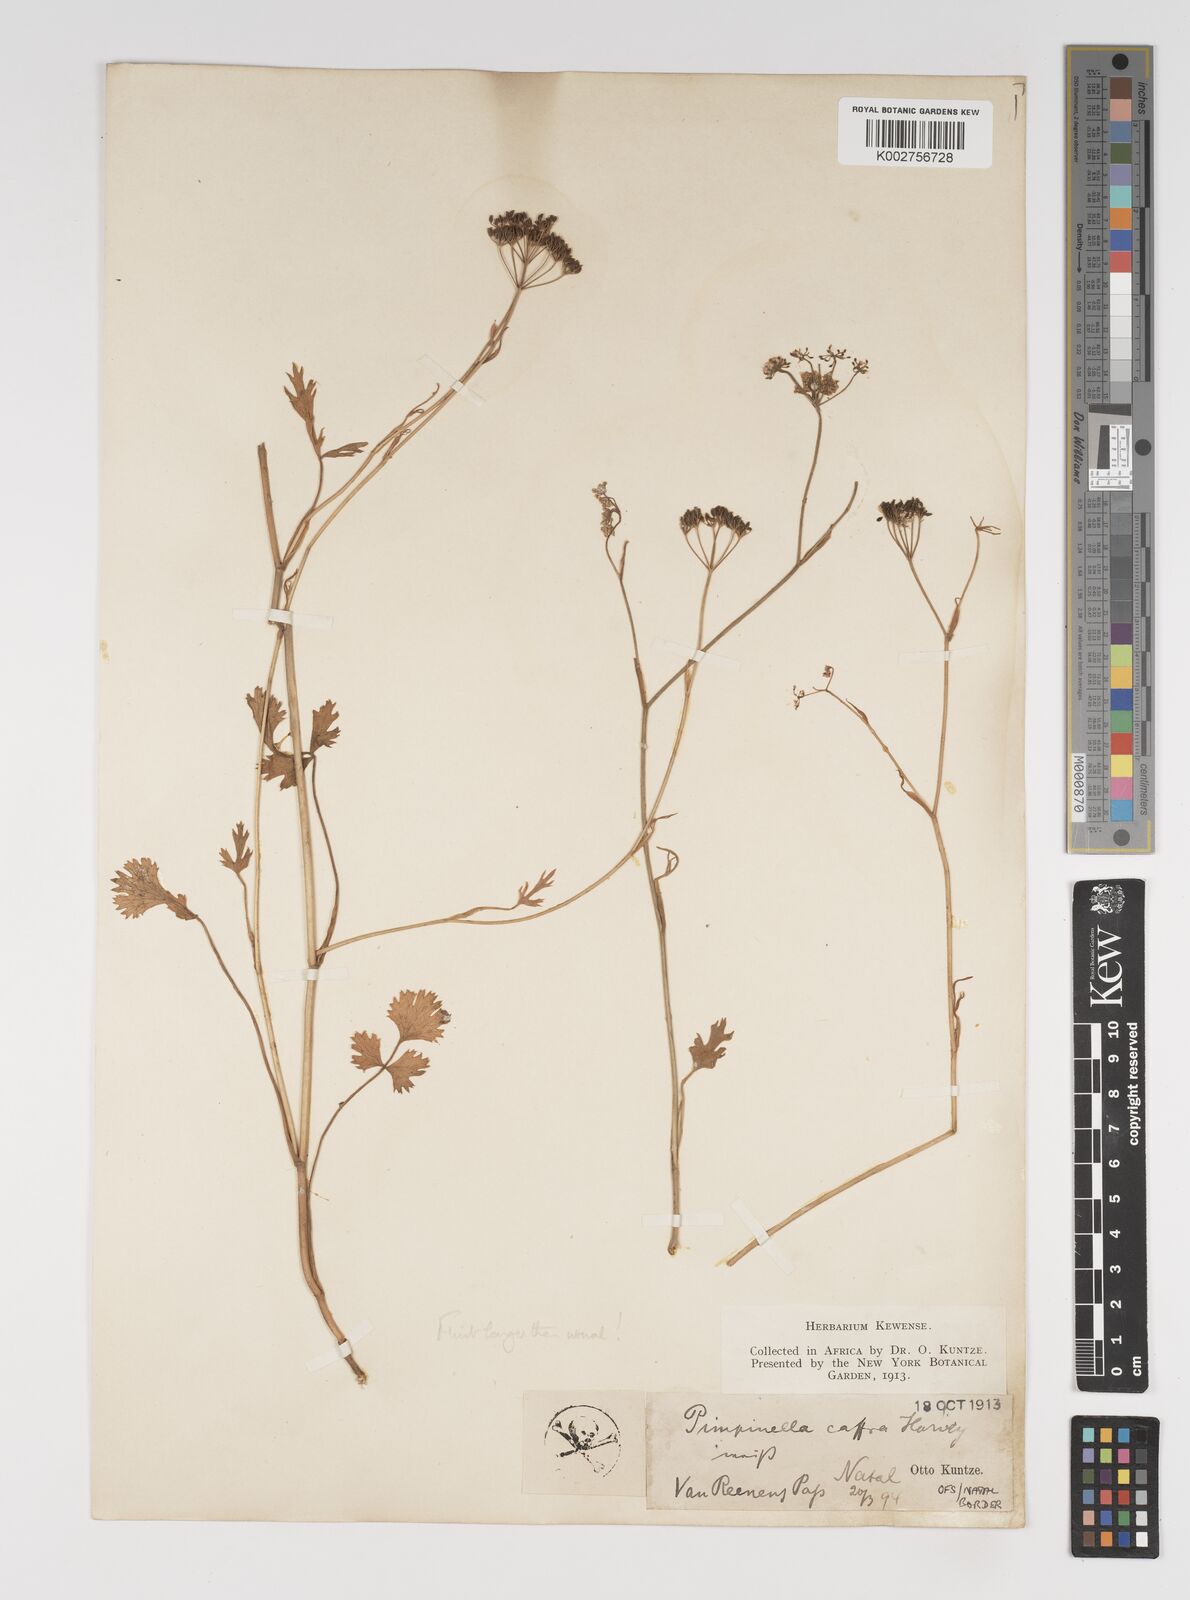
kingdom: Plantae
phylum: Tracheophyta
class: Magnoliopsida
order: Apiales
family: Apiaceae
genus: Pimpinella
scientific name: Pimpinella caffra
